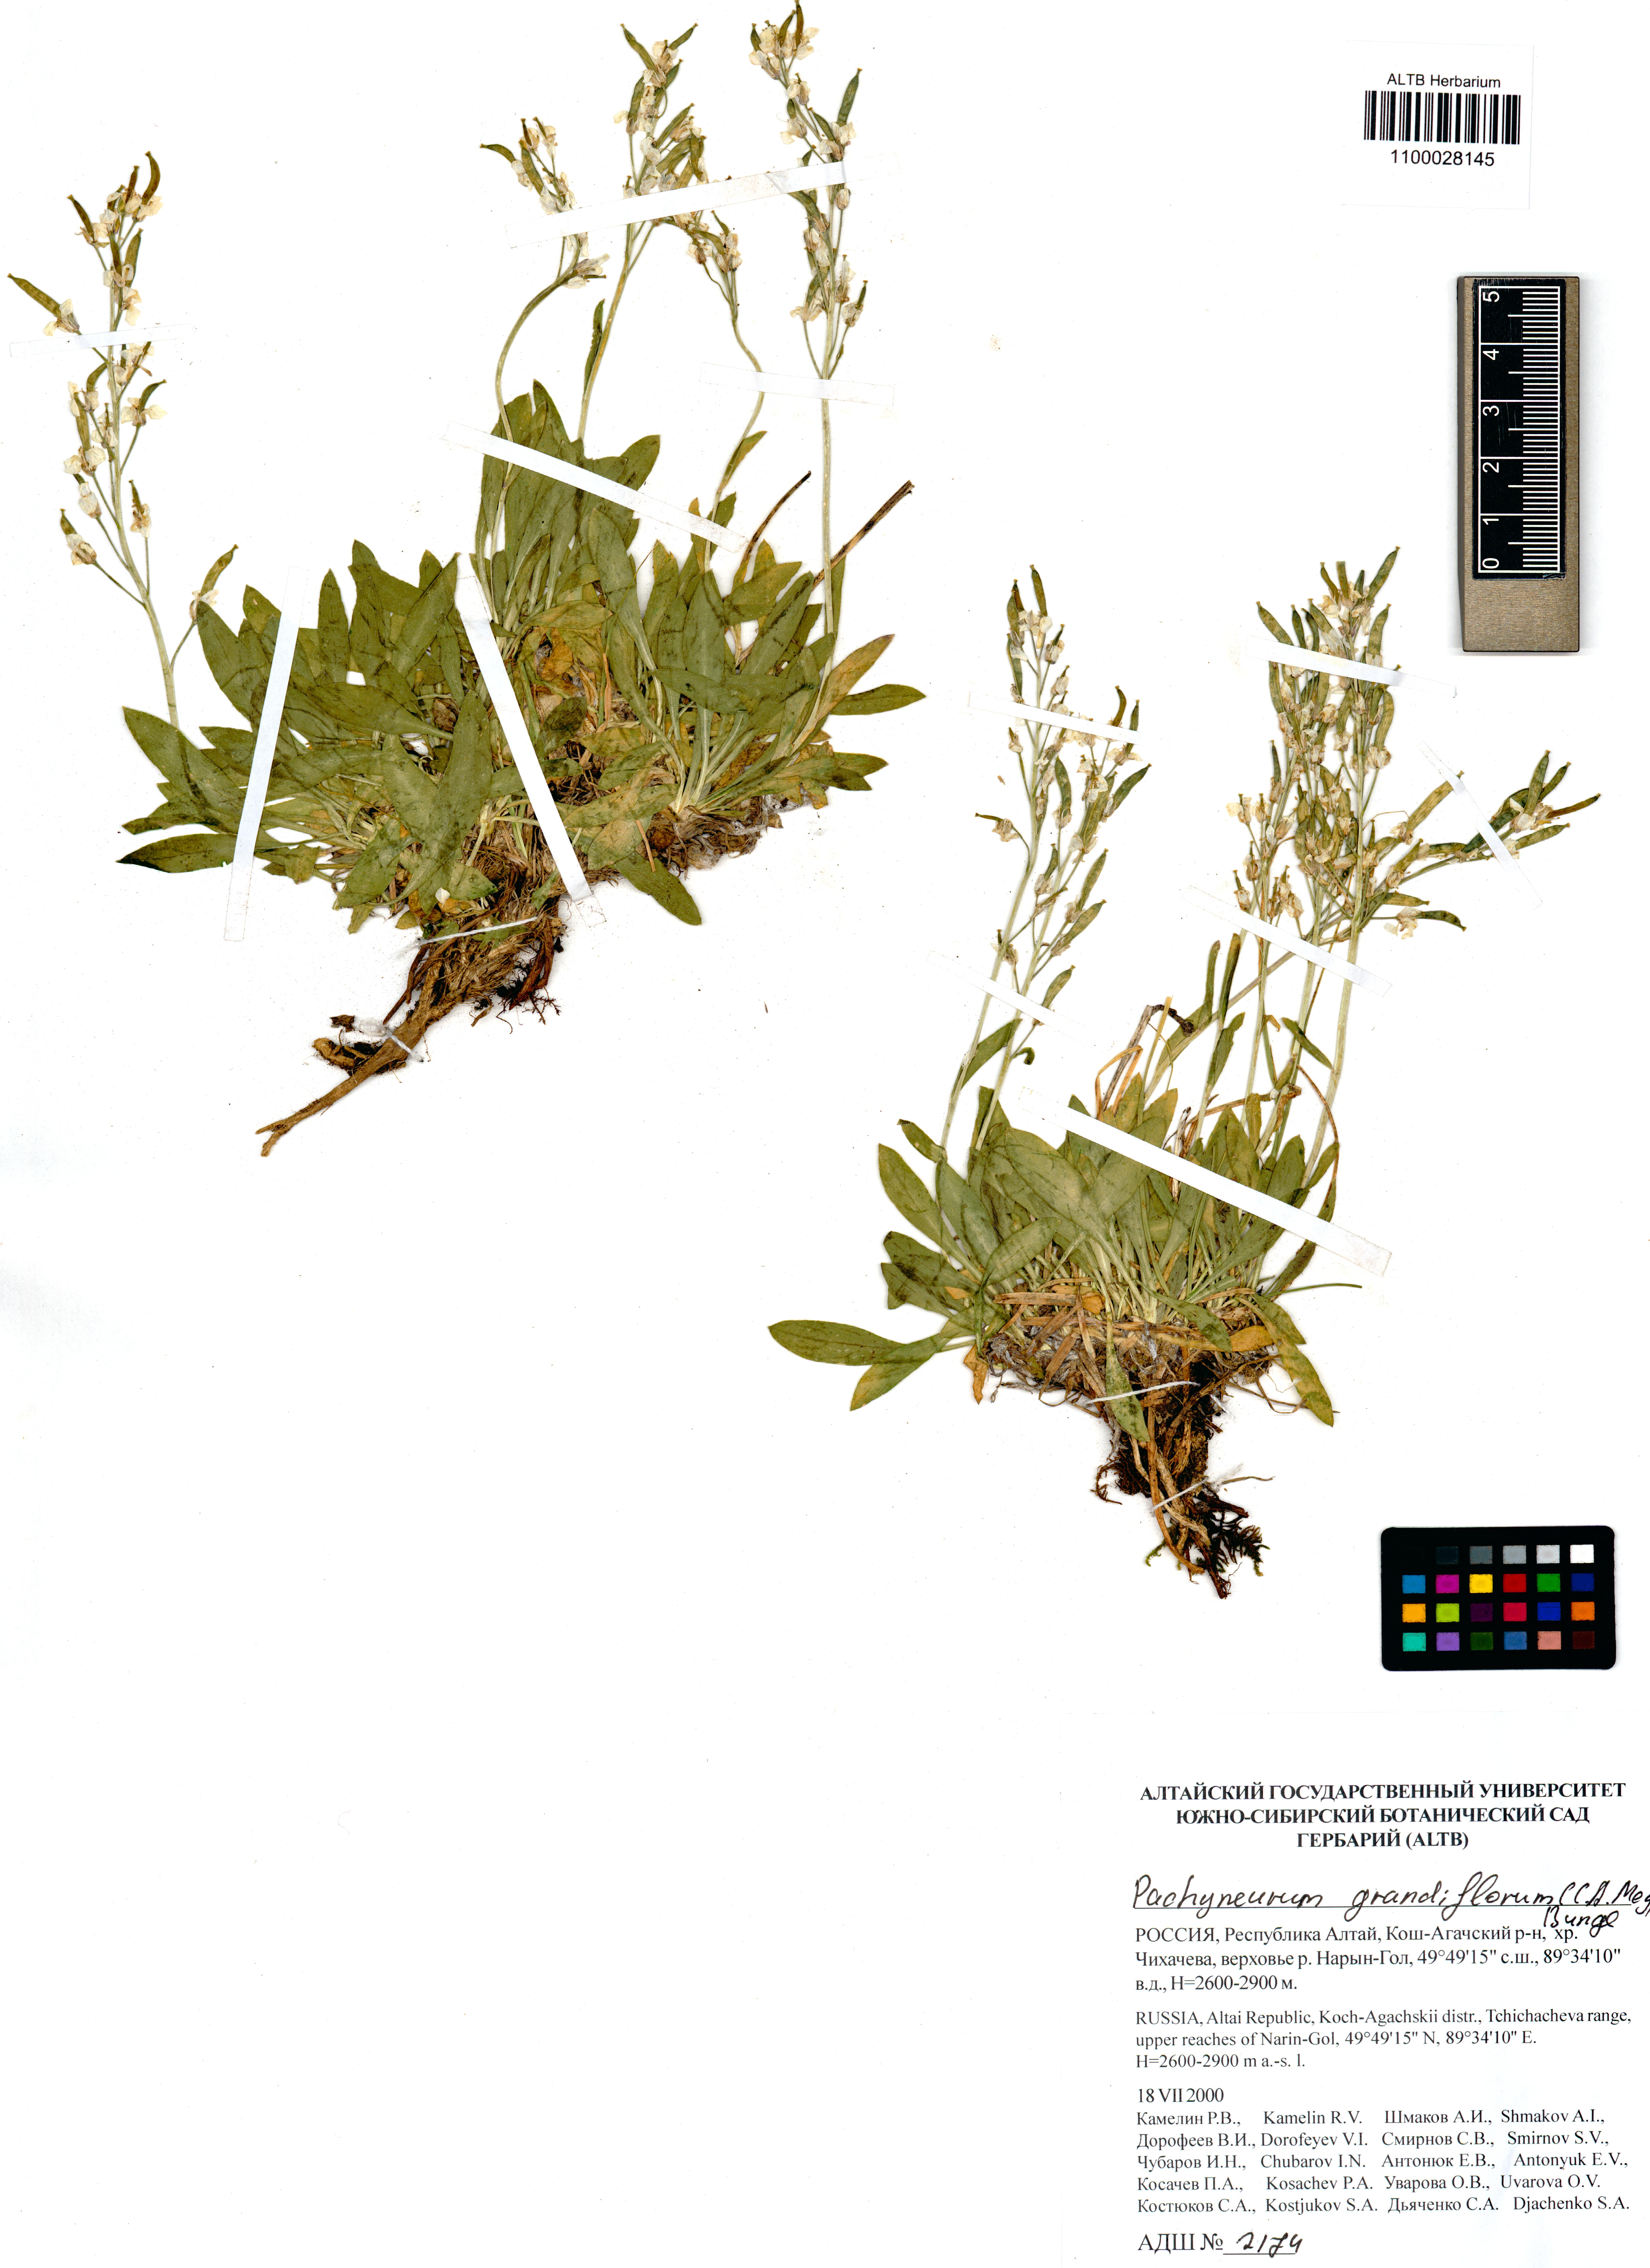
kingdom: Plantae
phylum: Tracheophyta
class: Magnoliopsida
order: Brassicales
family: Brassicaceae
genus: Pachyneurum
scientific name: Pachyneurum grandiflorum
